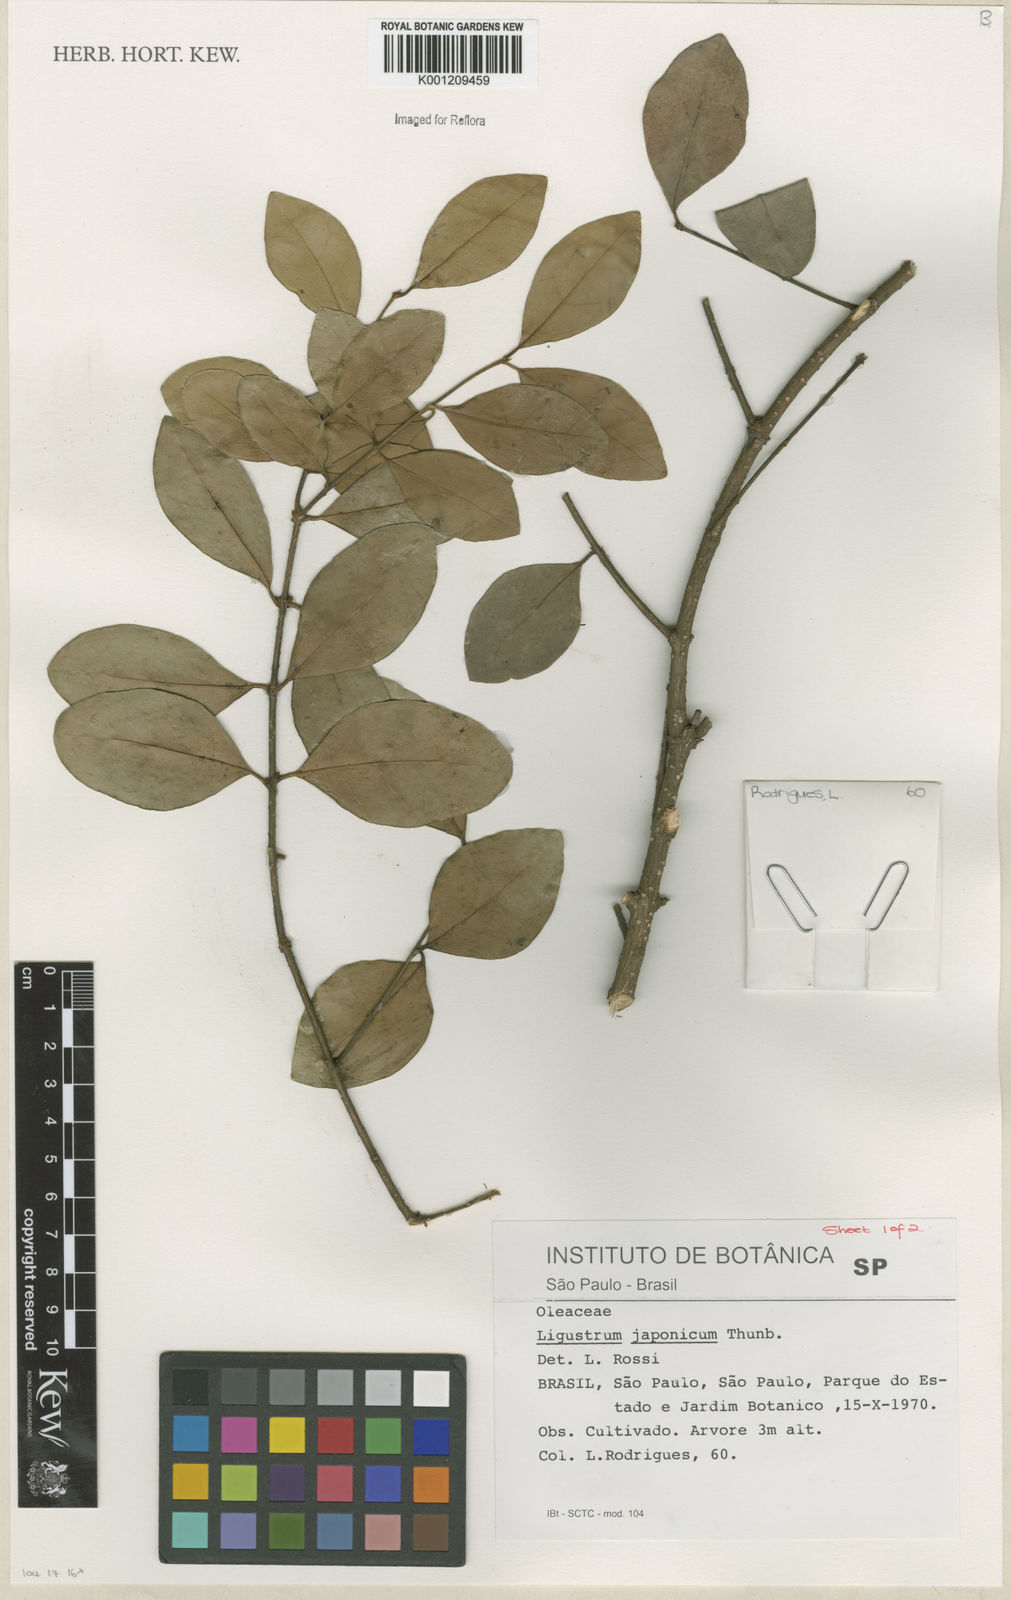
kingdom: Plantae
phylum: Tracheophyta
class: Magnoliopsida
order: Lamiales
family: Oleaceae
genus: Ligustrum
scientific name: Ligustrum japonicum
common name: Japanese privet
